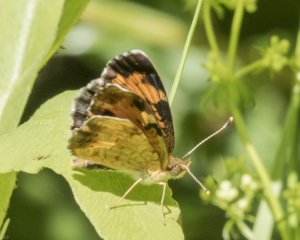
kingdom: Animalia
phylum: Arthropoda
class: Insecta
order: Lepidoptera
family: Nymphalidae
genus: Phyciodes
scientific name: Phyciodes tharos
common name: Northern Crescent
